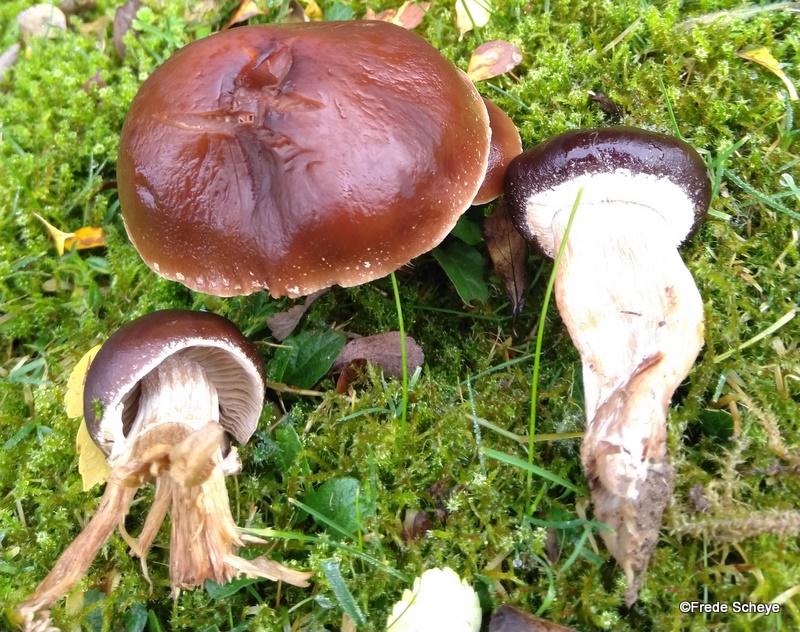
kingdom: Fungi
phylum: Basidiomycota
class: Agaricomycetes
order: Agaricales
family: Tubariaceae
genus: Cyclocybe
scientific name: Cyclocybe erebia
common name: mørk agerhat
